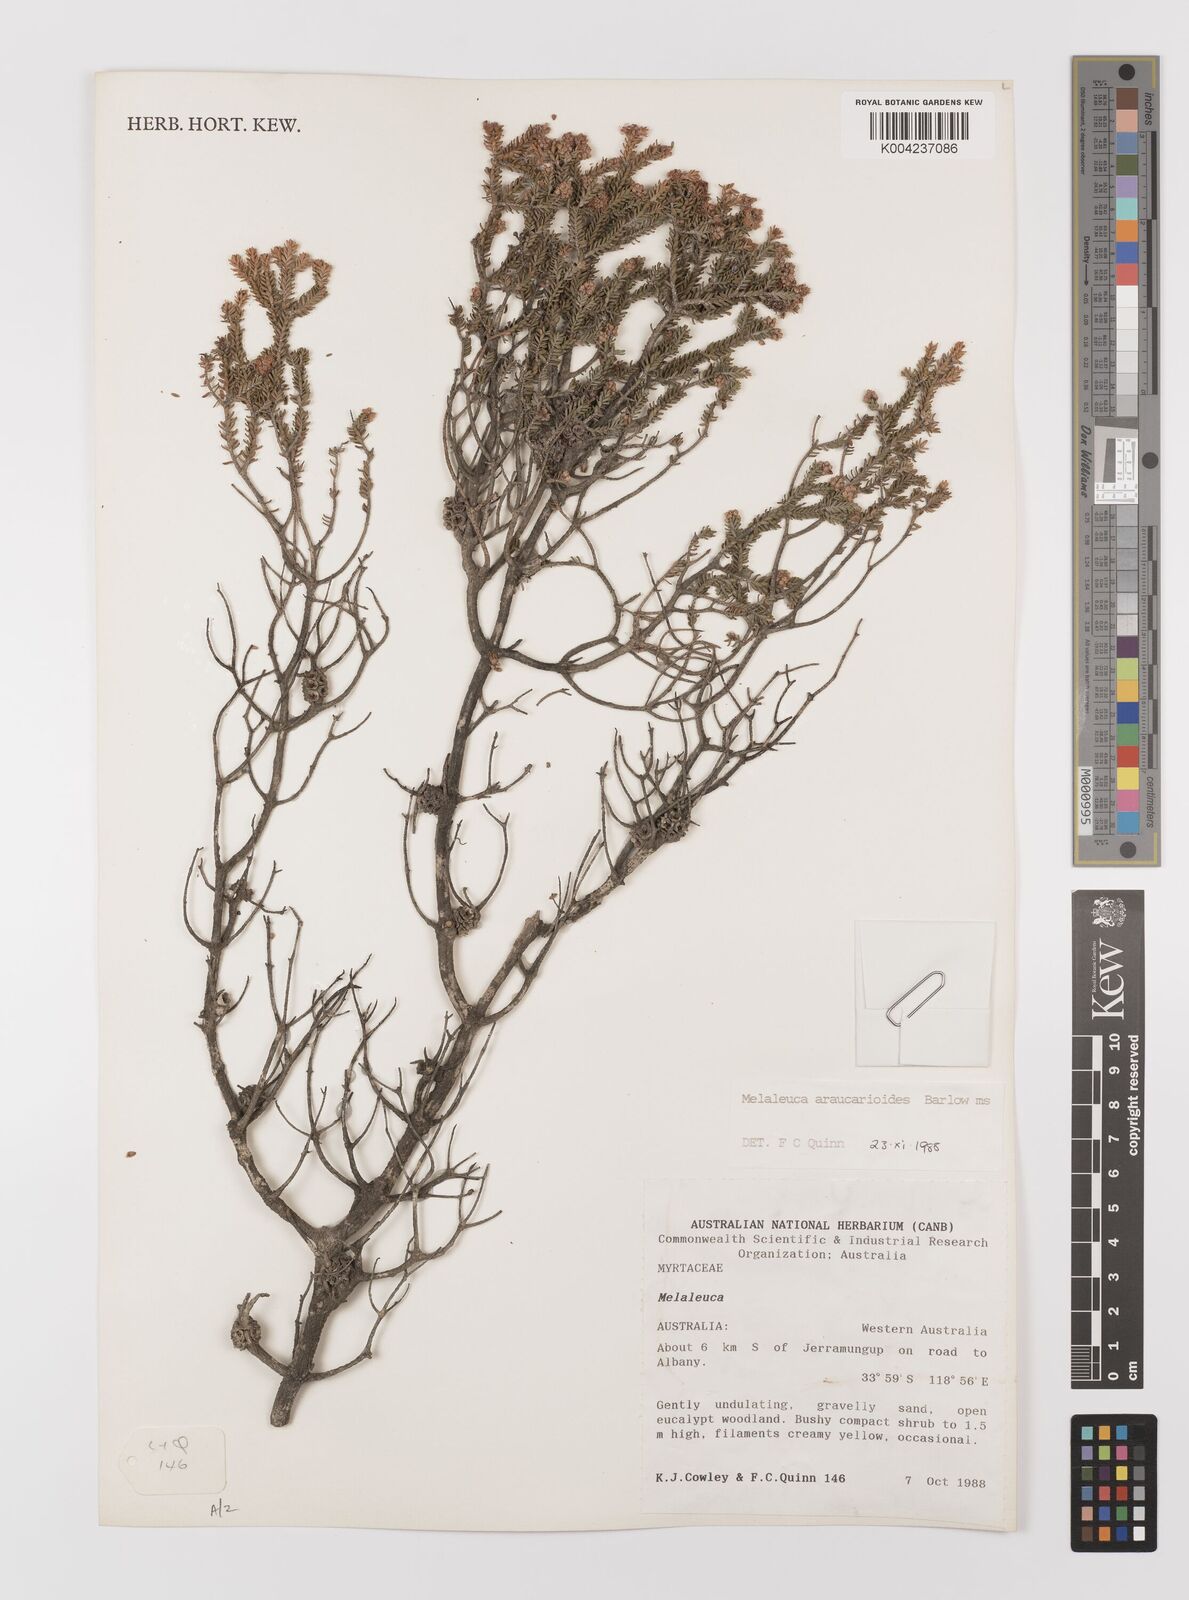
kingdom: Plantae
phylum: Tracheophyta
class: Magnoliopsida
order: Myrtales
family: Myrtaceae
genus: Melaleuca
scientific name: Melaleuca araucarioides
